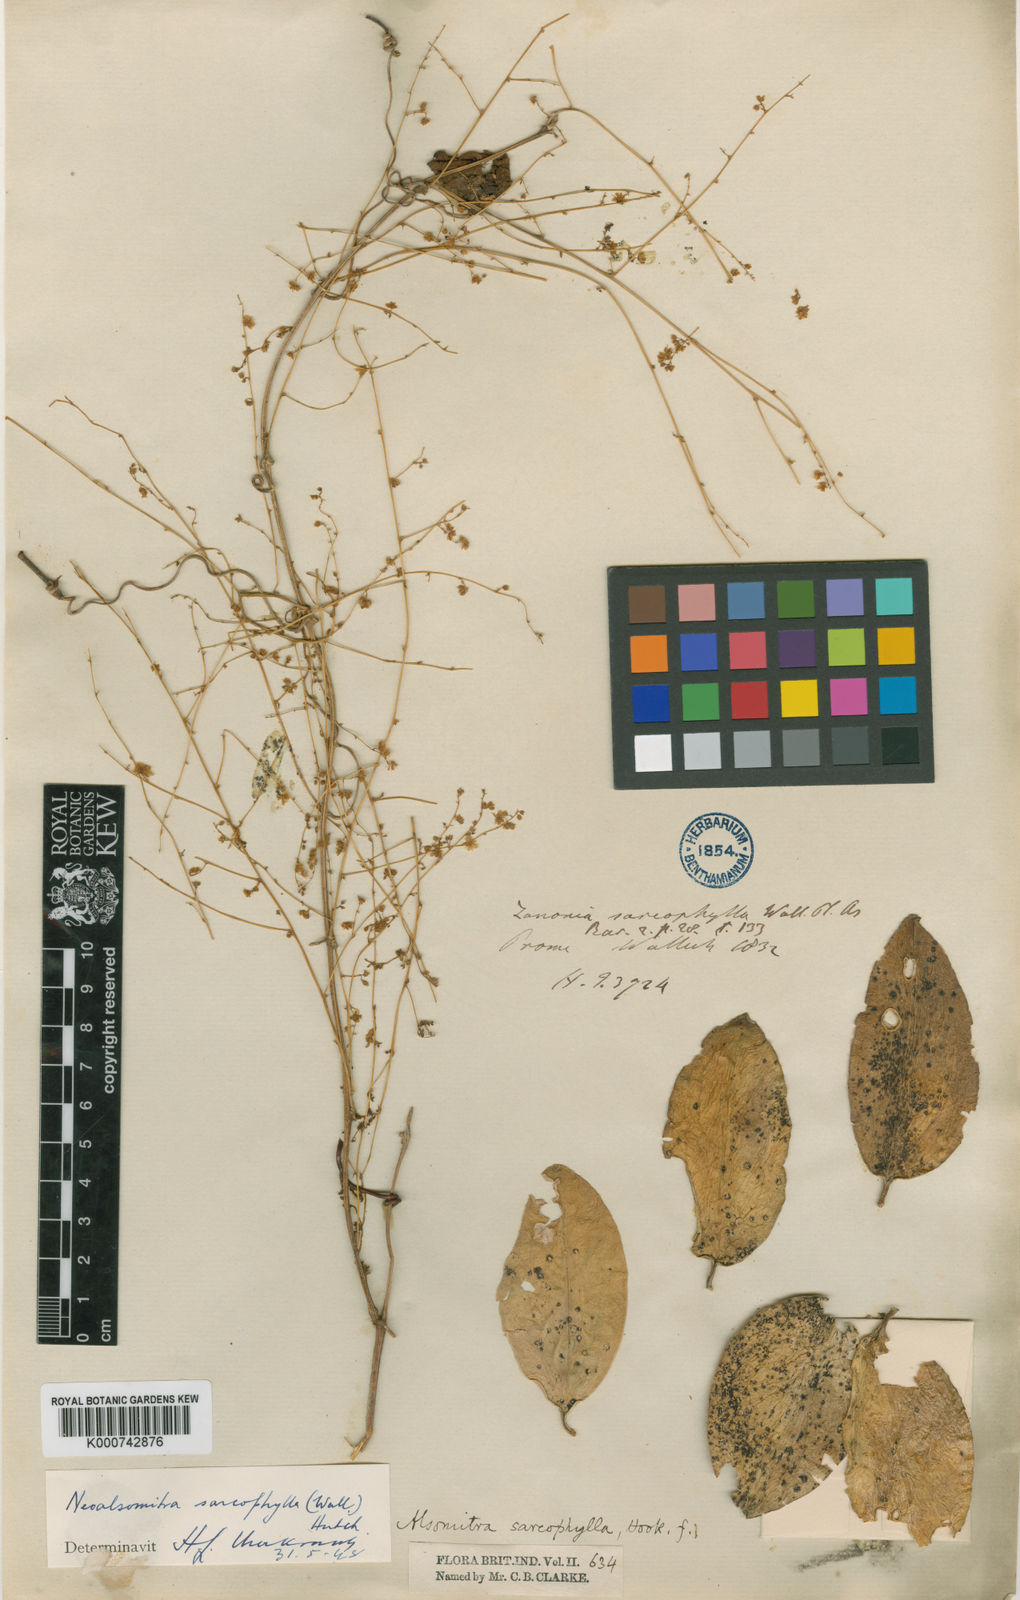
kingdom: Plantae
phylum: Tracheophyta
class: Magnoliopsida
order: Cucurbitales
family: Cucurbitaceae
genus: Neoalsomitra
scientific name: Neoalsomitra sarcophylla
